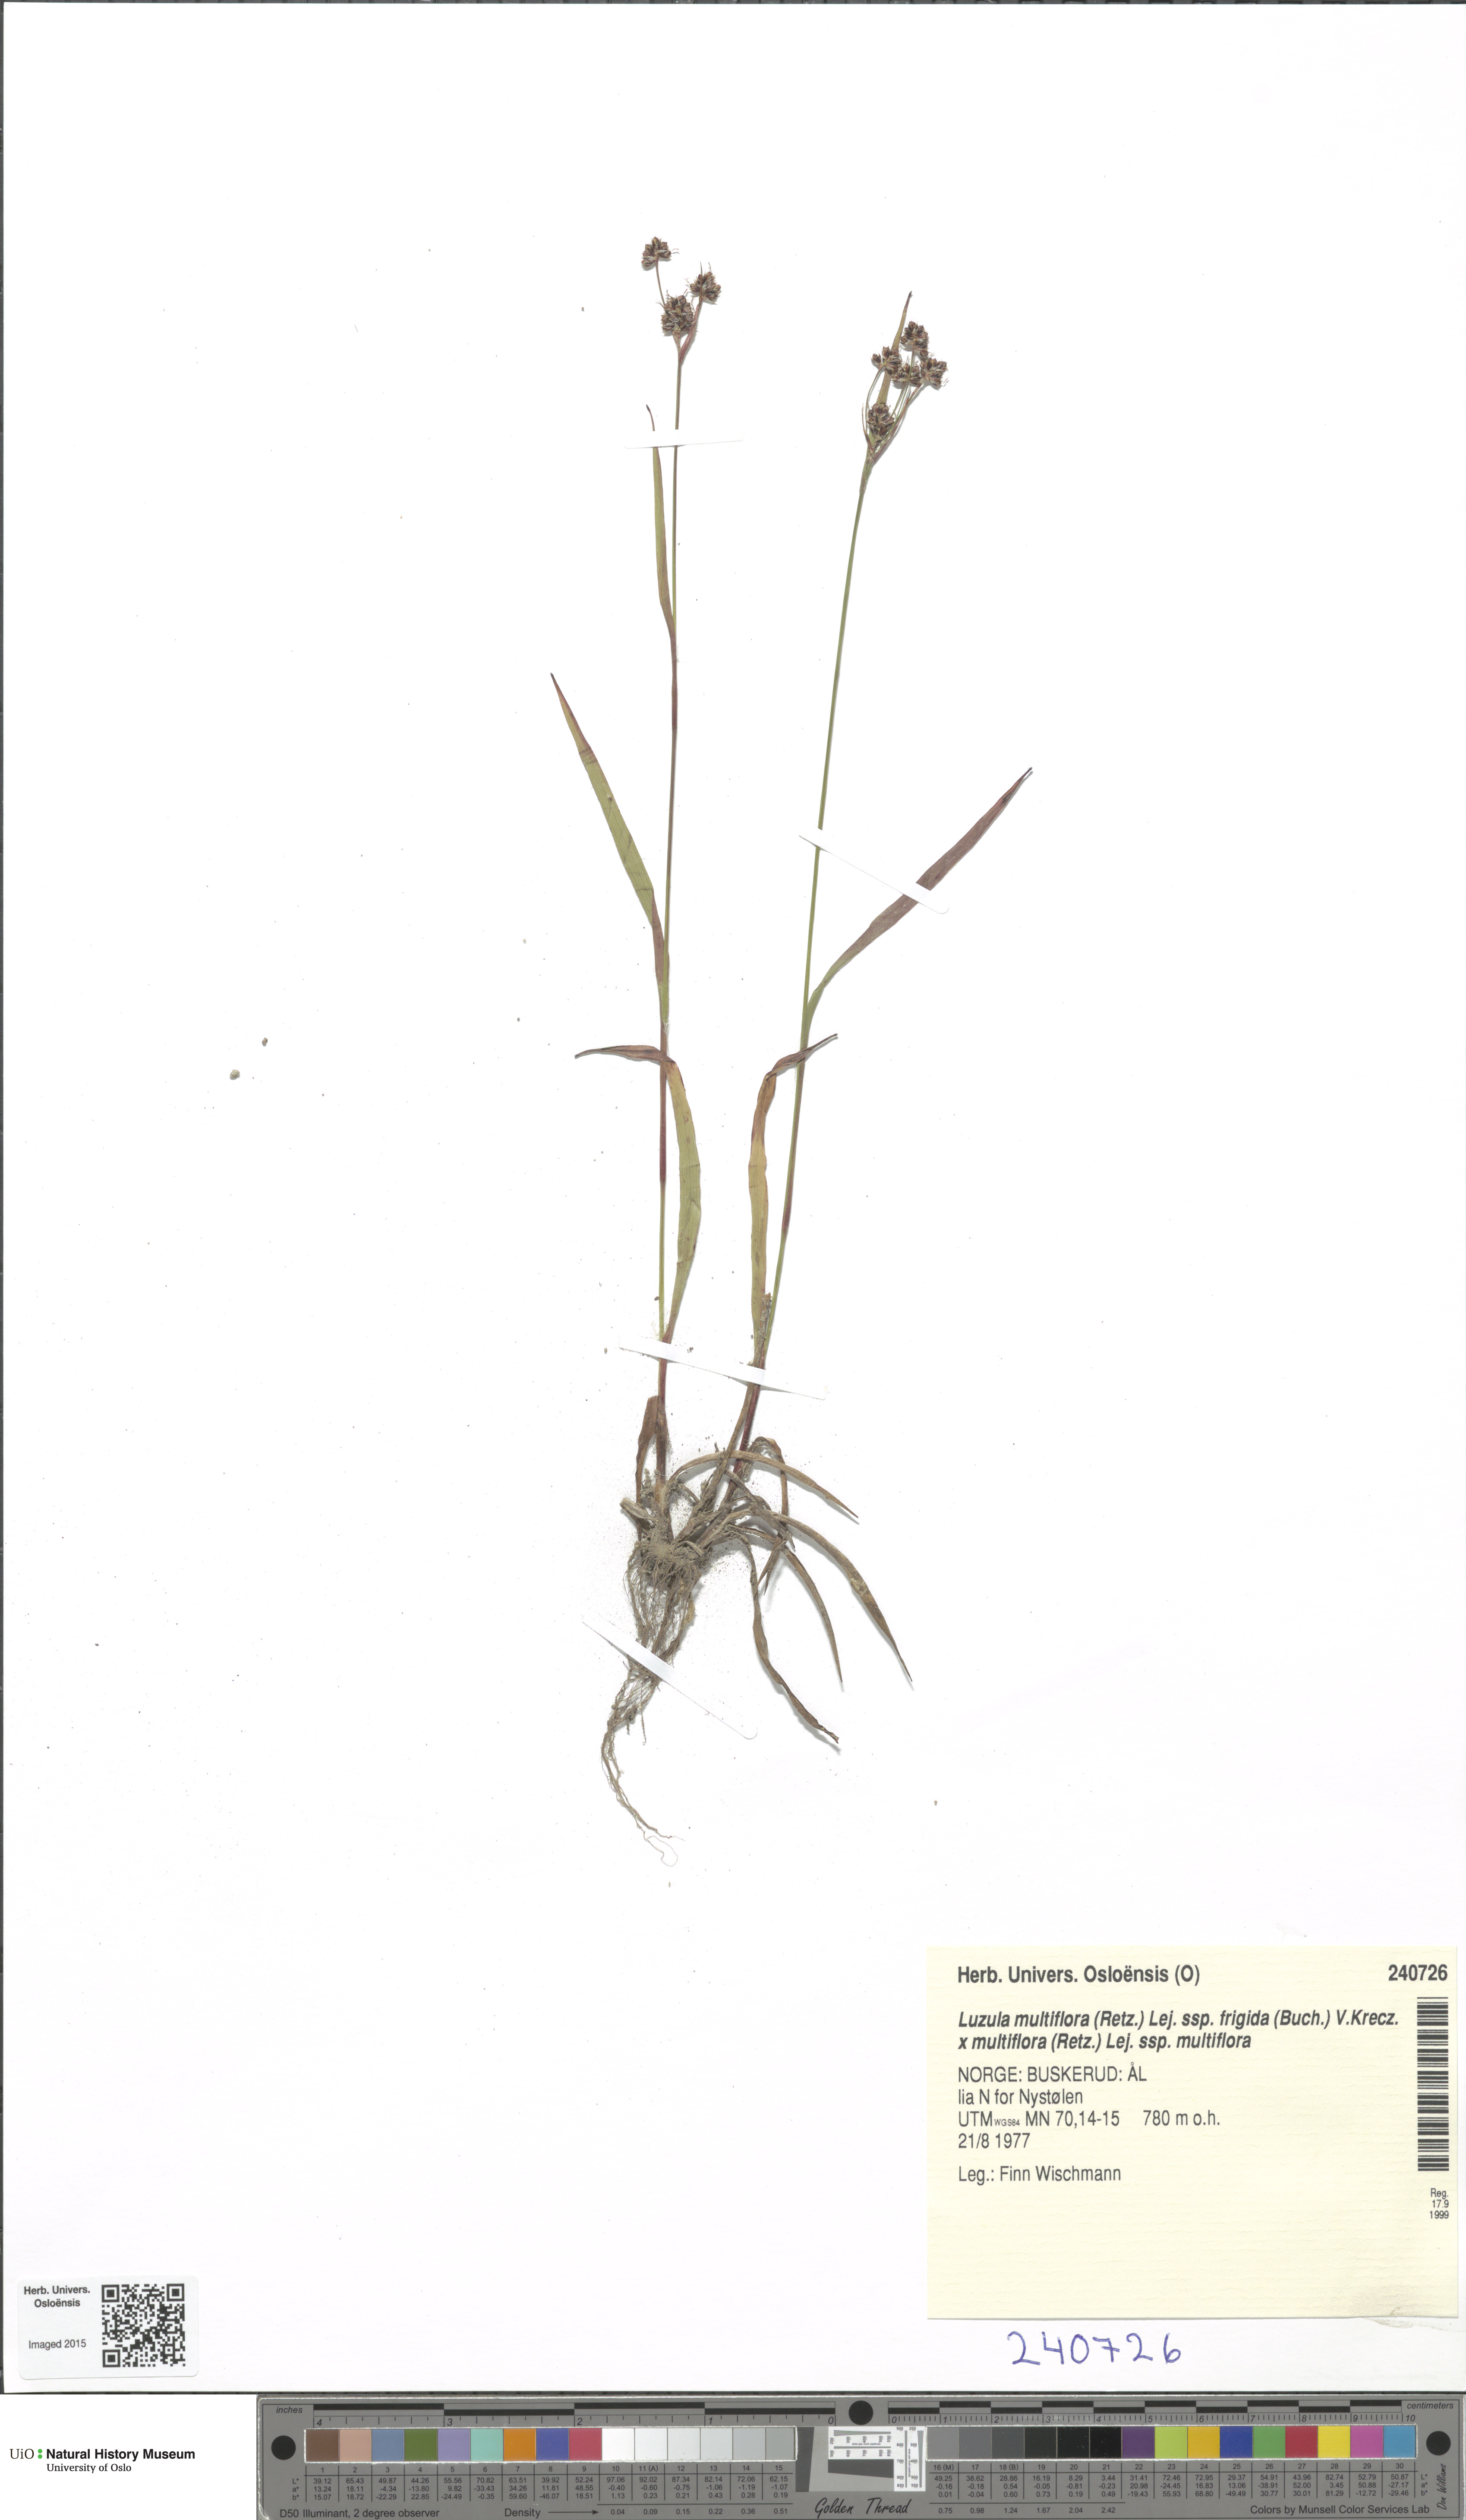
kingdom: Plantae
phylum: Tracheophyta
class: Liliopsida
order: Poales
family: Juncaceae
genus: Luzula
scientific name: Luzula
